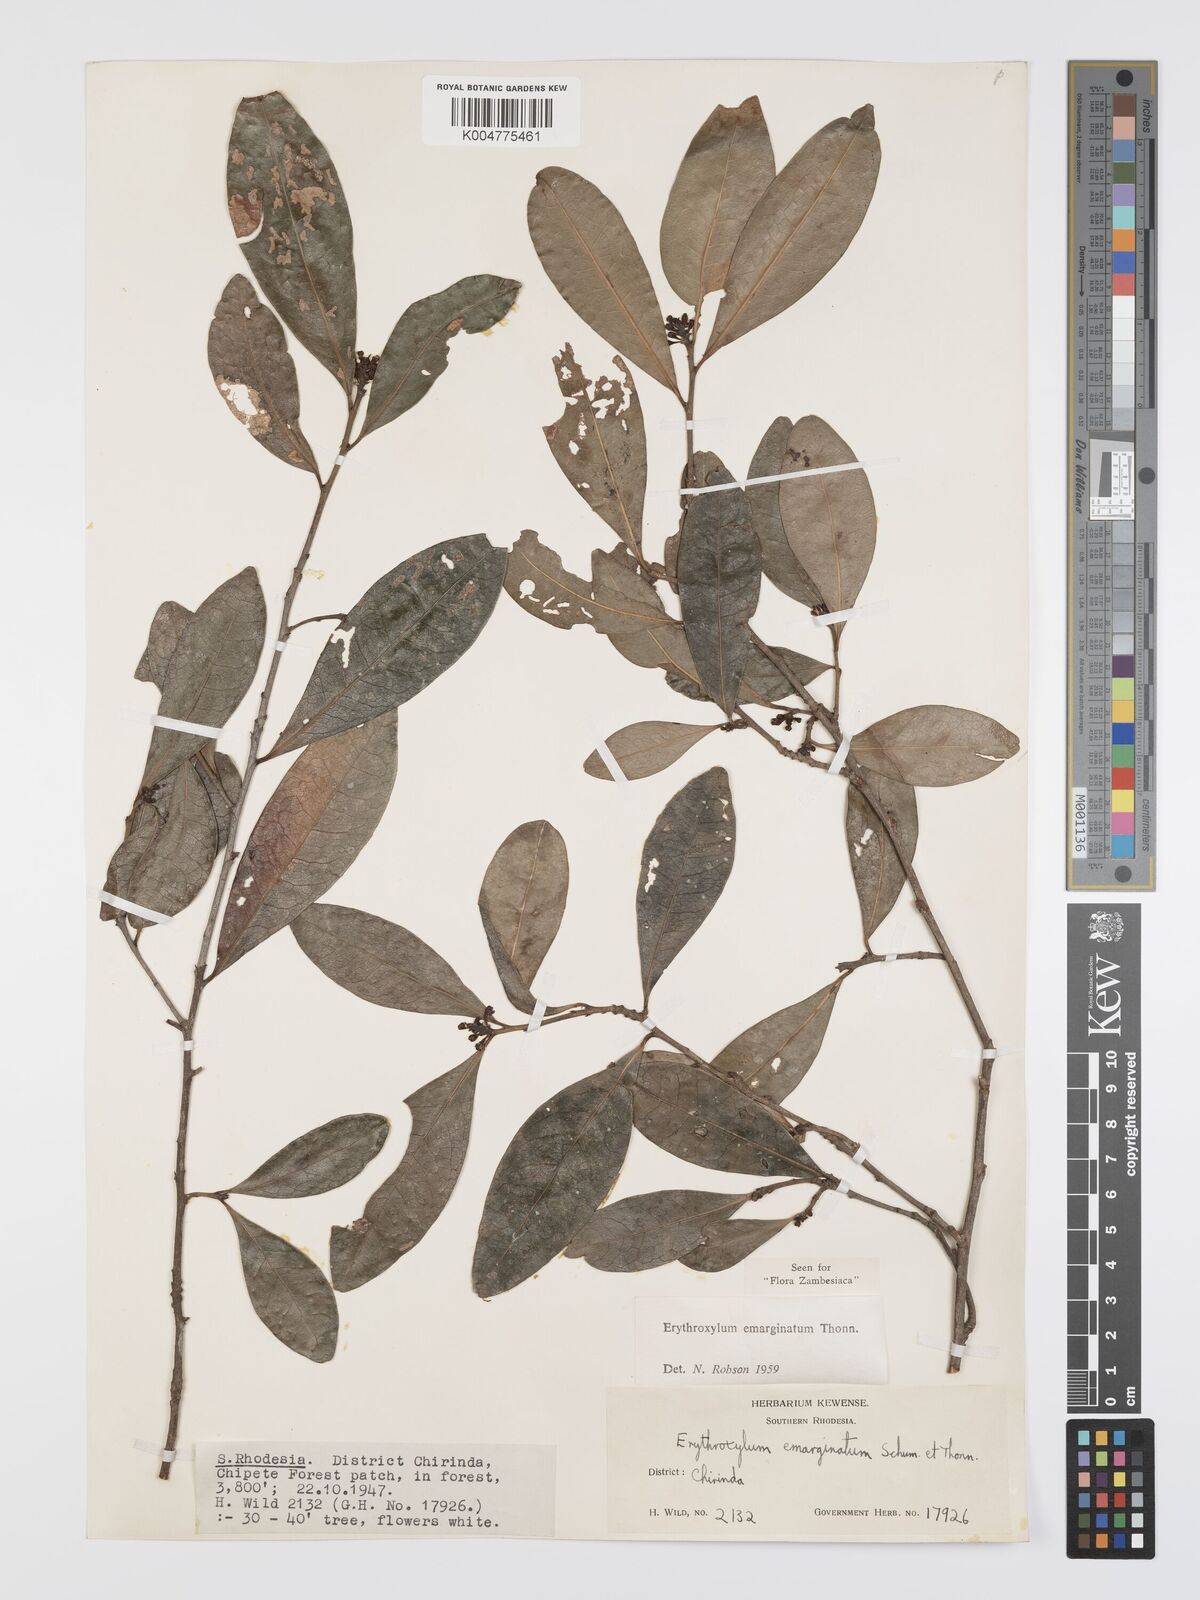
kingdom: Plantae
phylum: Tracheophyta
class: Magnoliopsida
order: Malpighiales
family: Erythroxylaceae
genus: Erythroxylum
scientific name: Erythroxylum emarginatum
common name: African coca-tree
